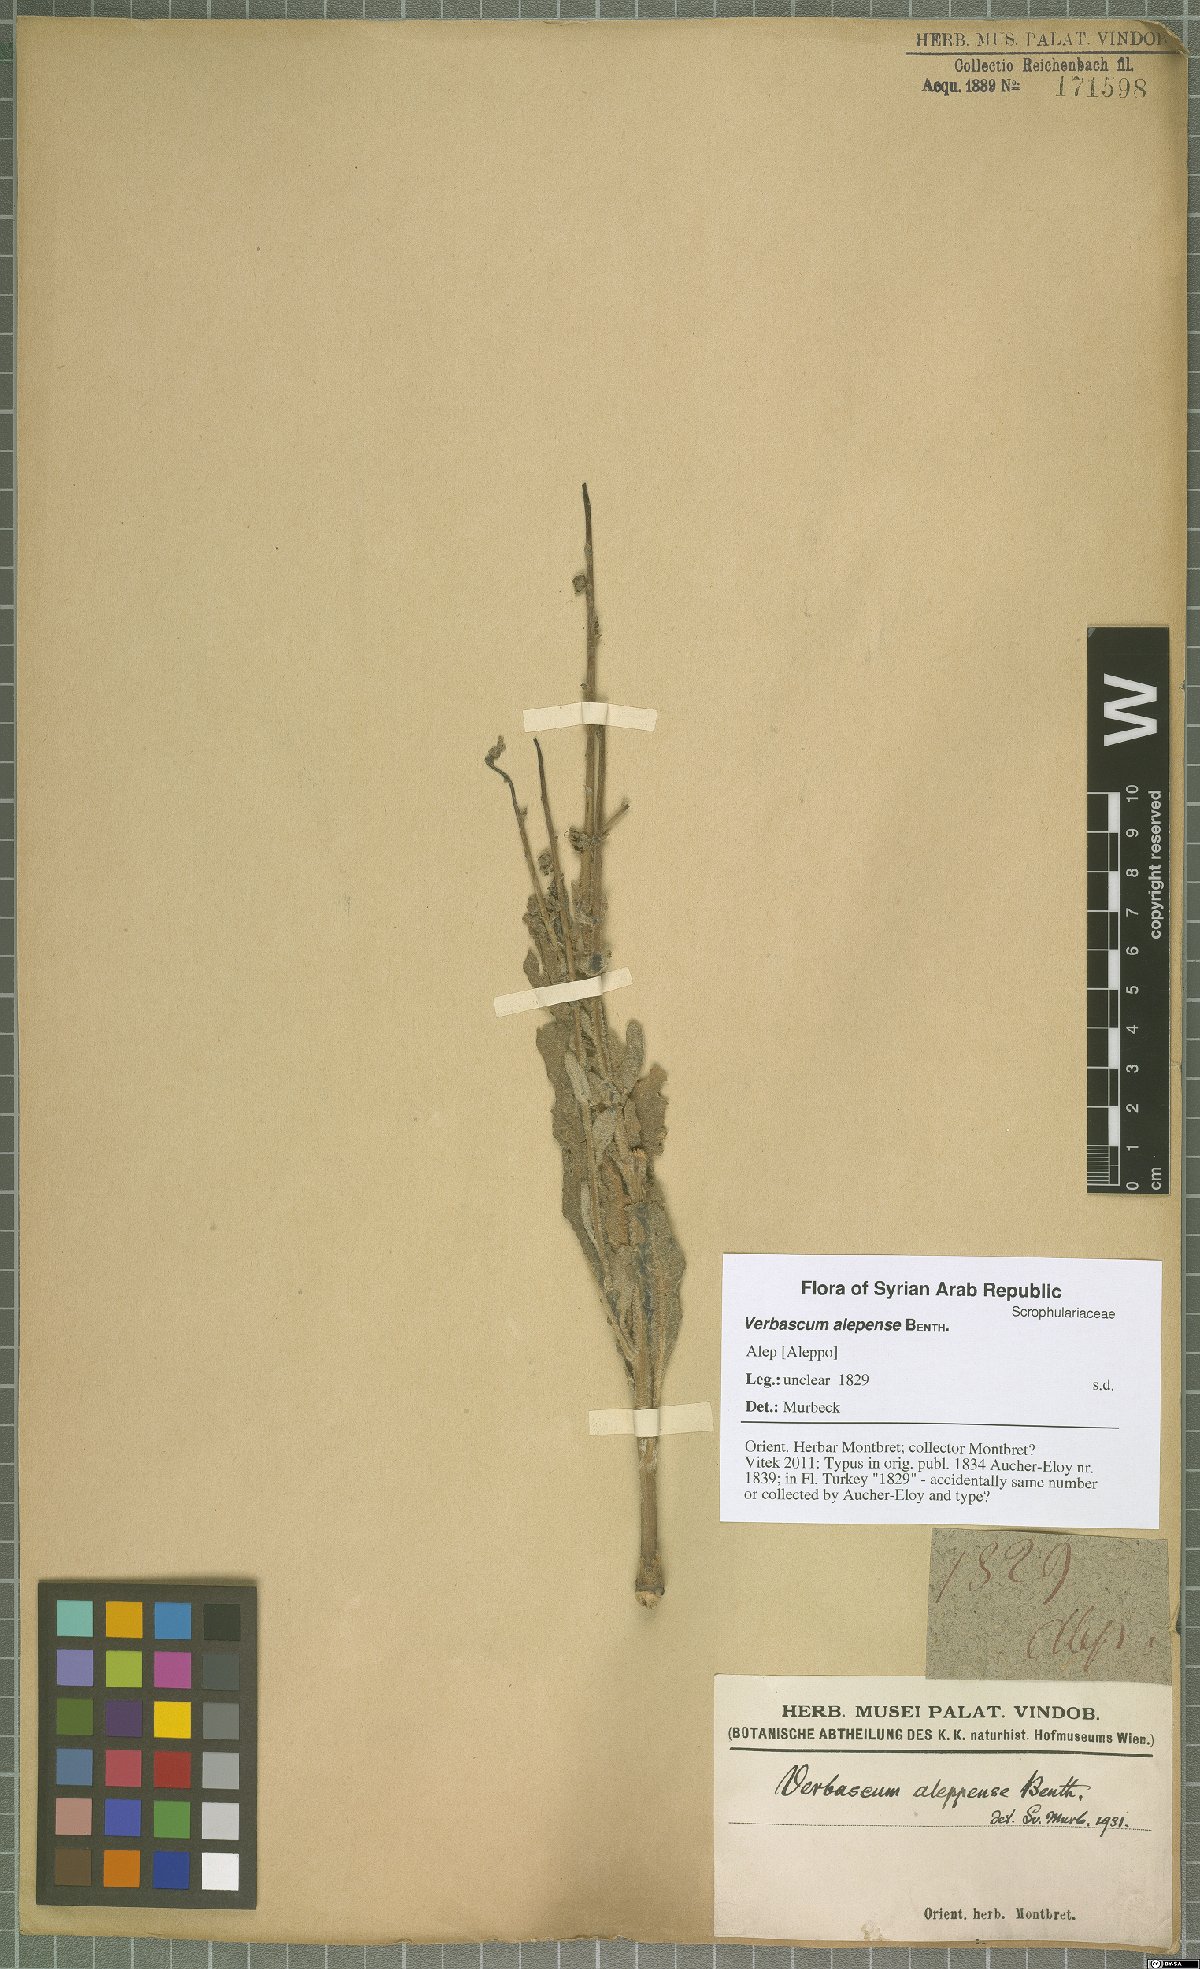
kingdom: Plantae
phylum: Tracheophyta
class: Magnoliopsida
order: Lamiales
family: Scrophulariaceae
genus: Verbascum
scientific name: Verbascum alepense
